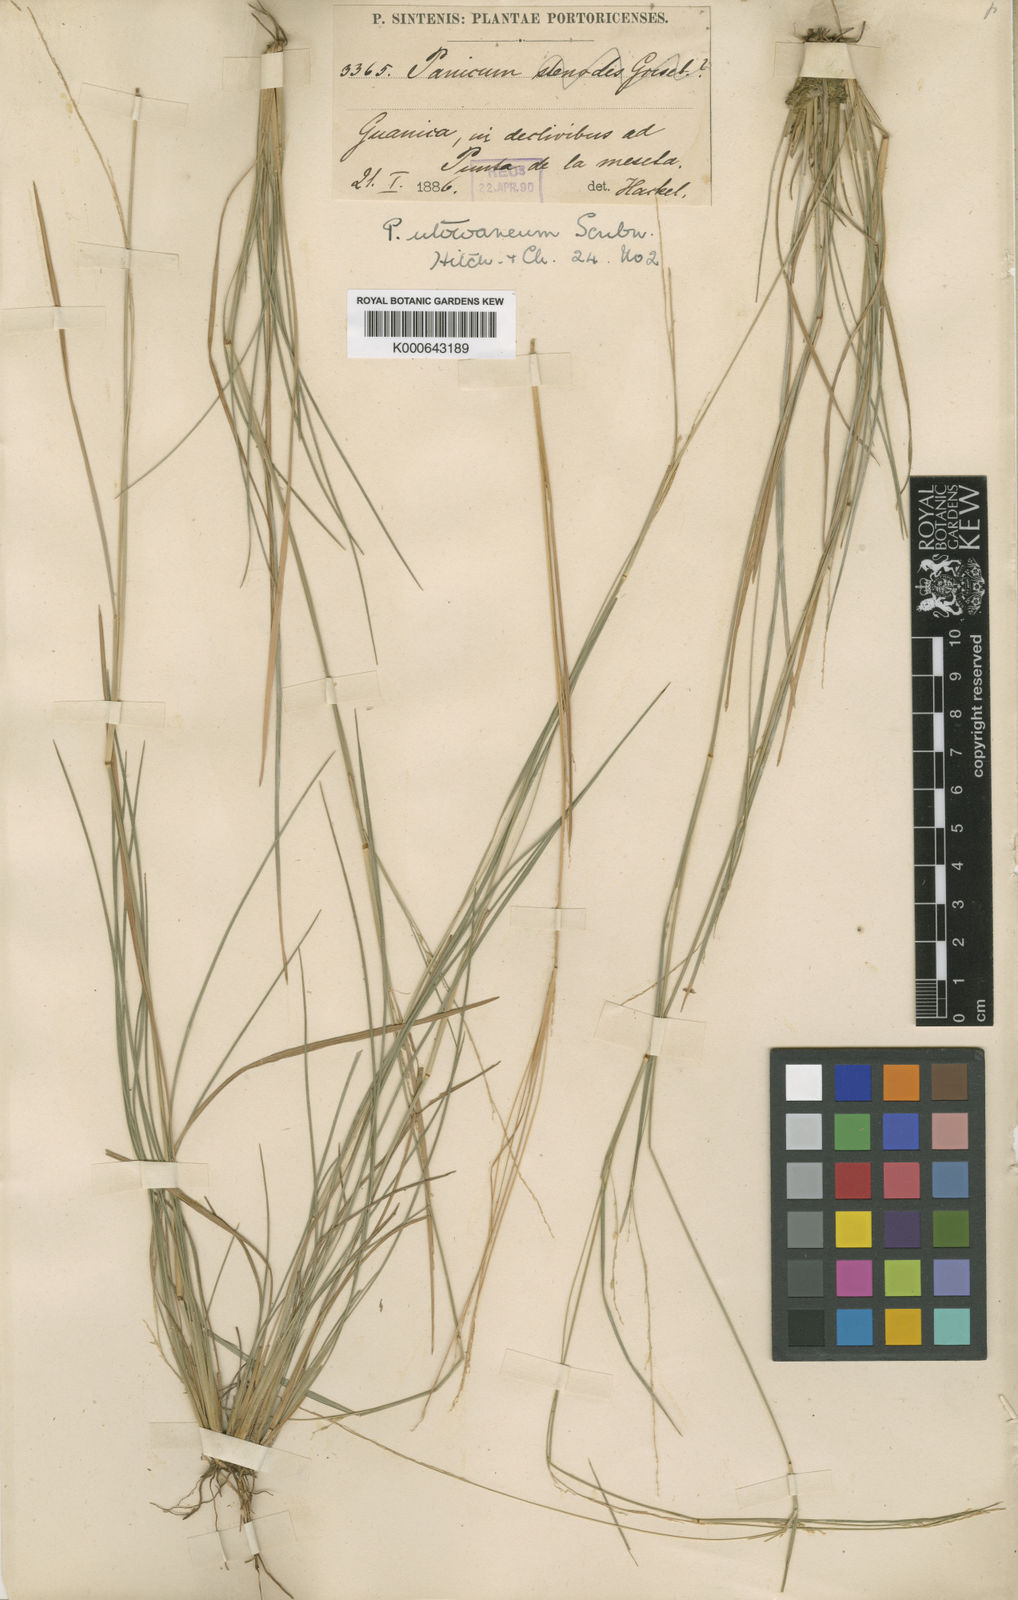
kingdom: Plantae
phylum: Tracheophyta
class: Liliopsida
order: Poales
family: Poaceae
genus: Setaria
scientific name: Setaria utowanaea
